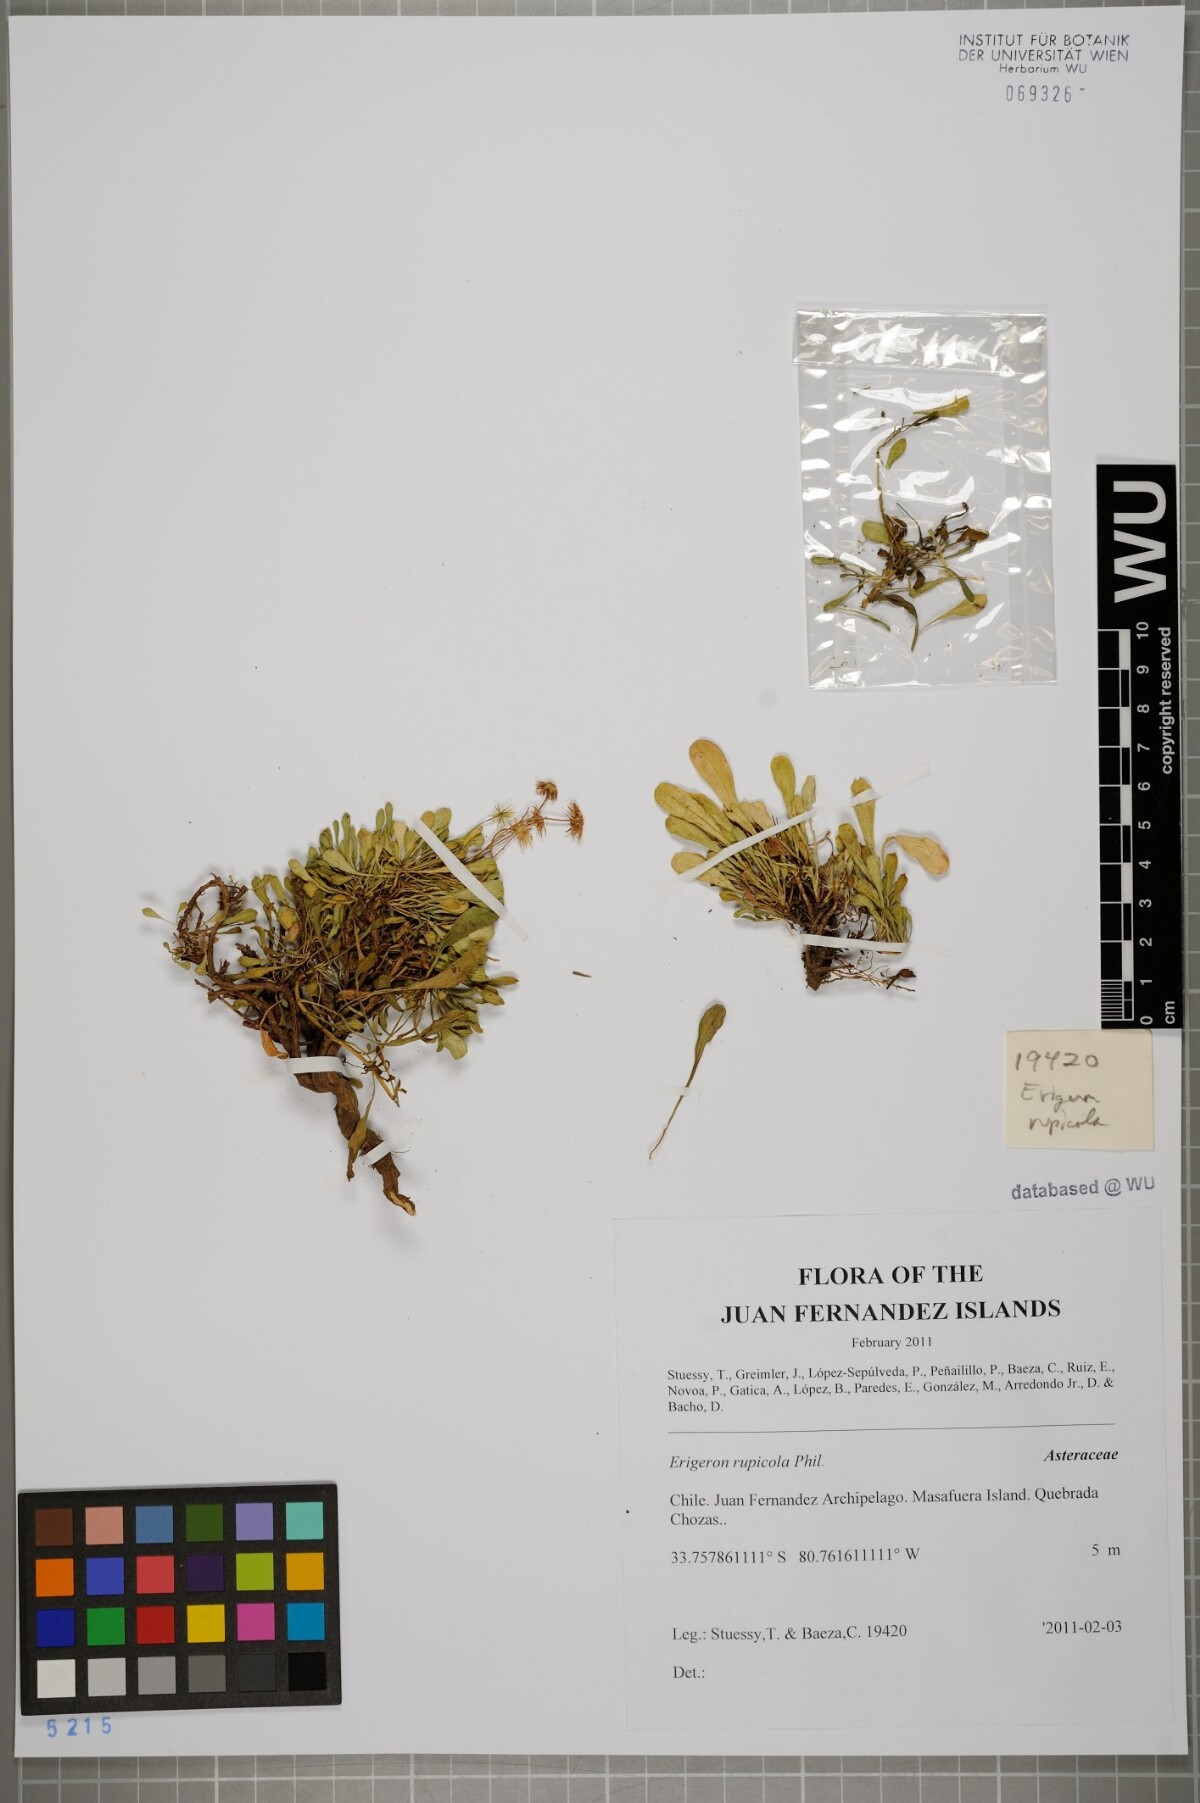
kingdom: Plantae
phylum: Tracheophyta
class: Magnoliopsida
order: Asterales
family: Asteraceae
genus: Erigeron
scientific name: Erigeron rupicola
